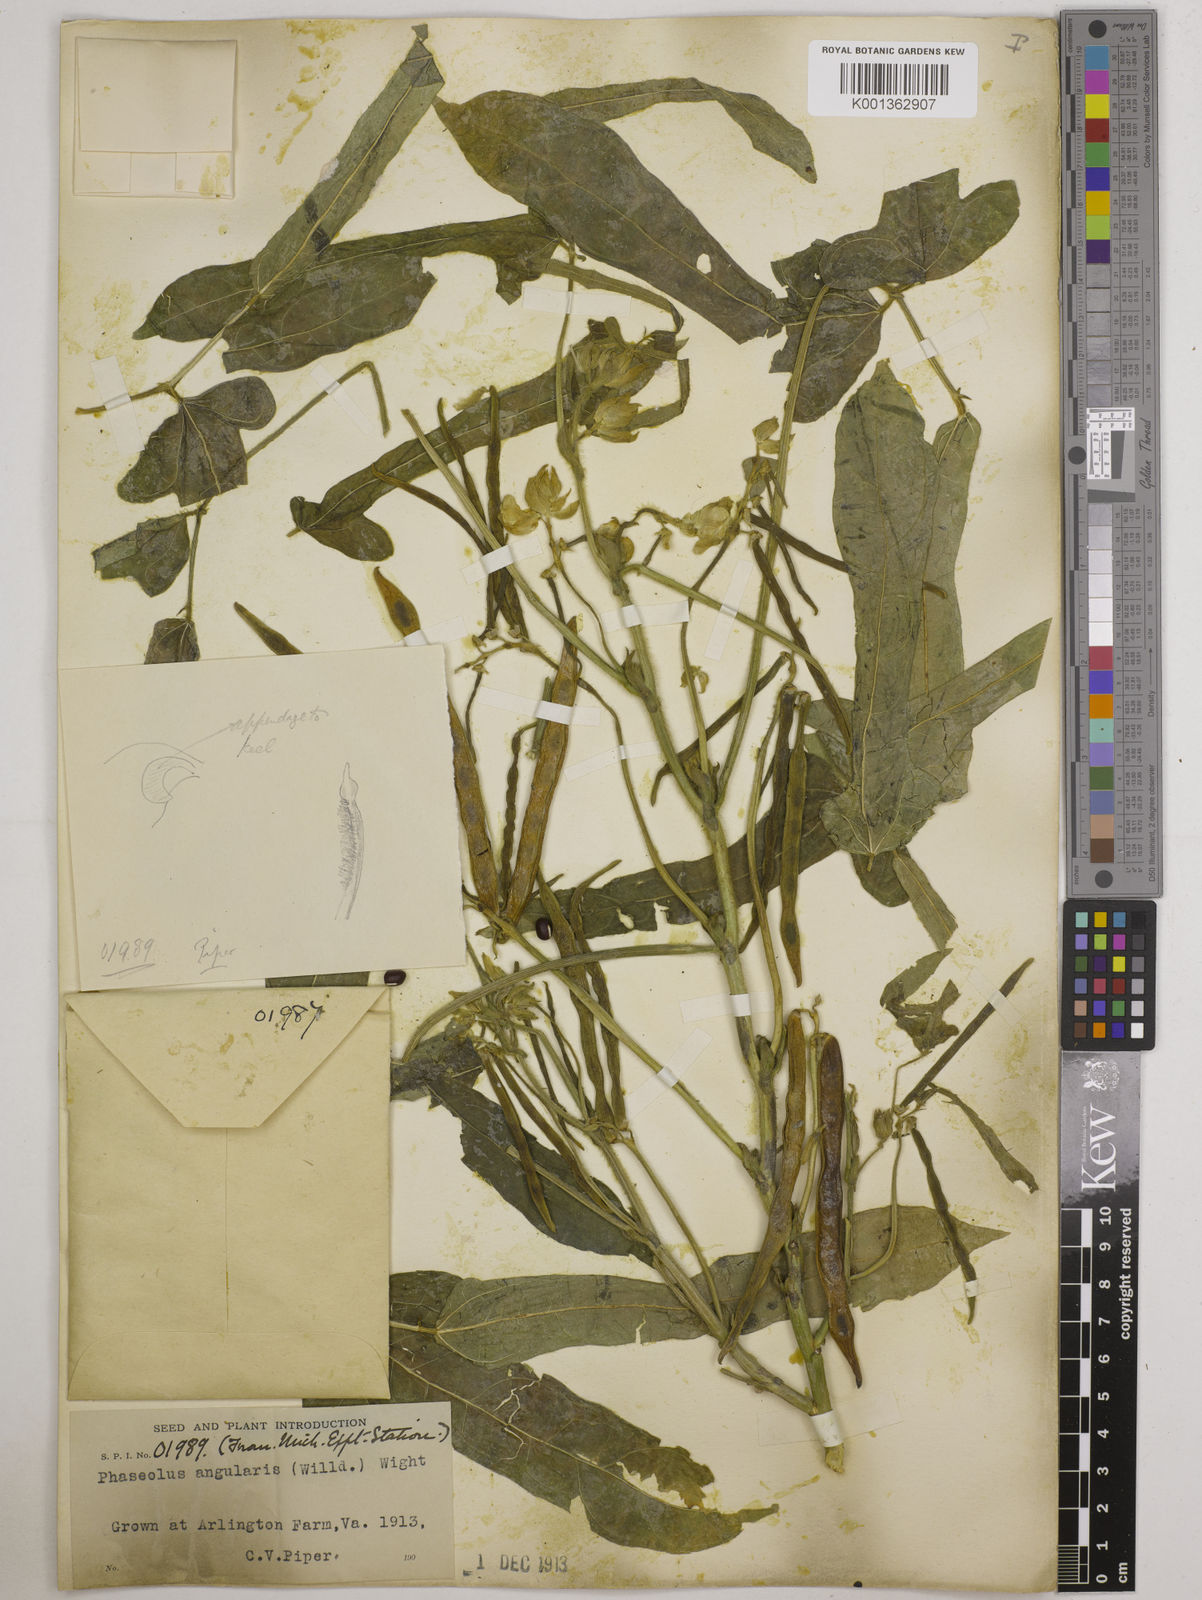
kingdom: Plantae
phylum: Tracheophyta
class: Magnoliopsida
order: Fabales
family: Fabaceae
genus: Vigna
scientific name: Vigna angularis
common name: Adzuki bean
